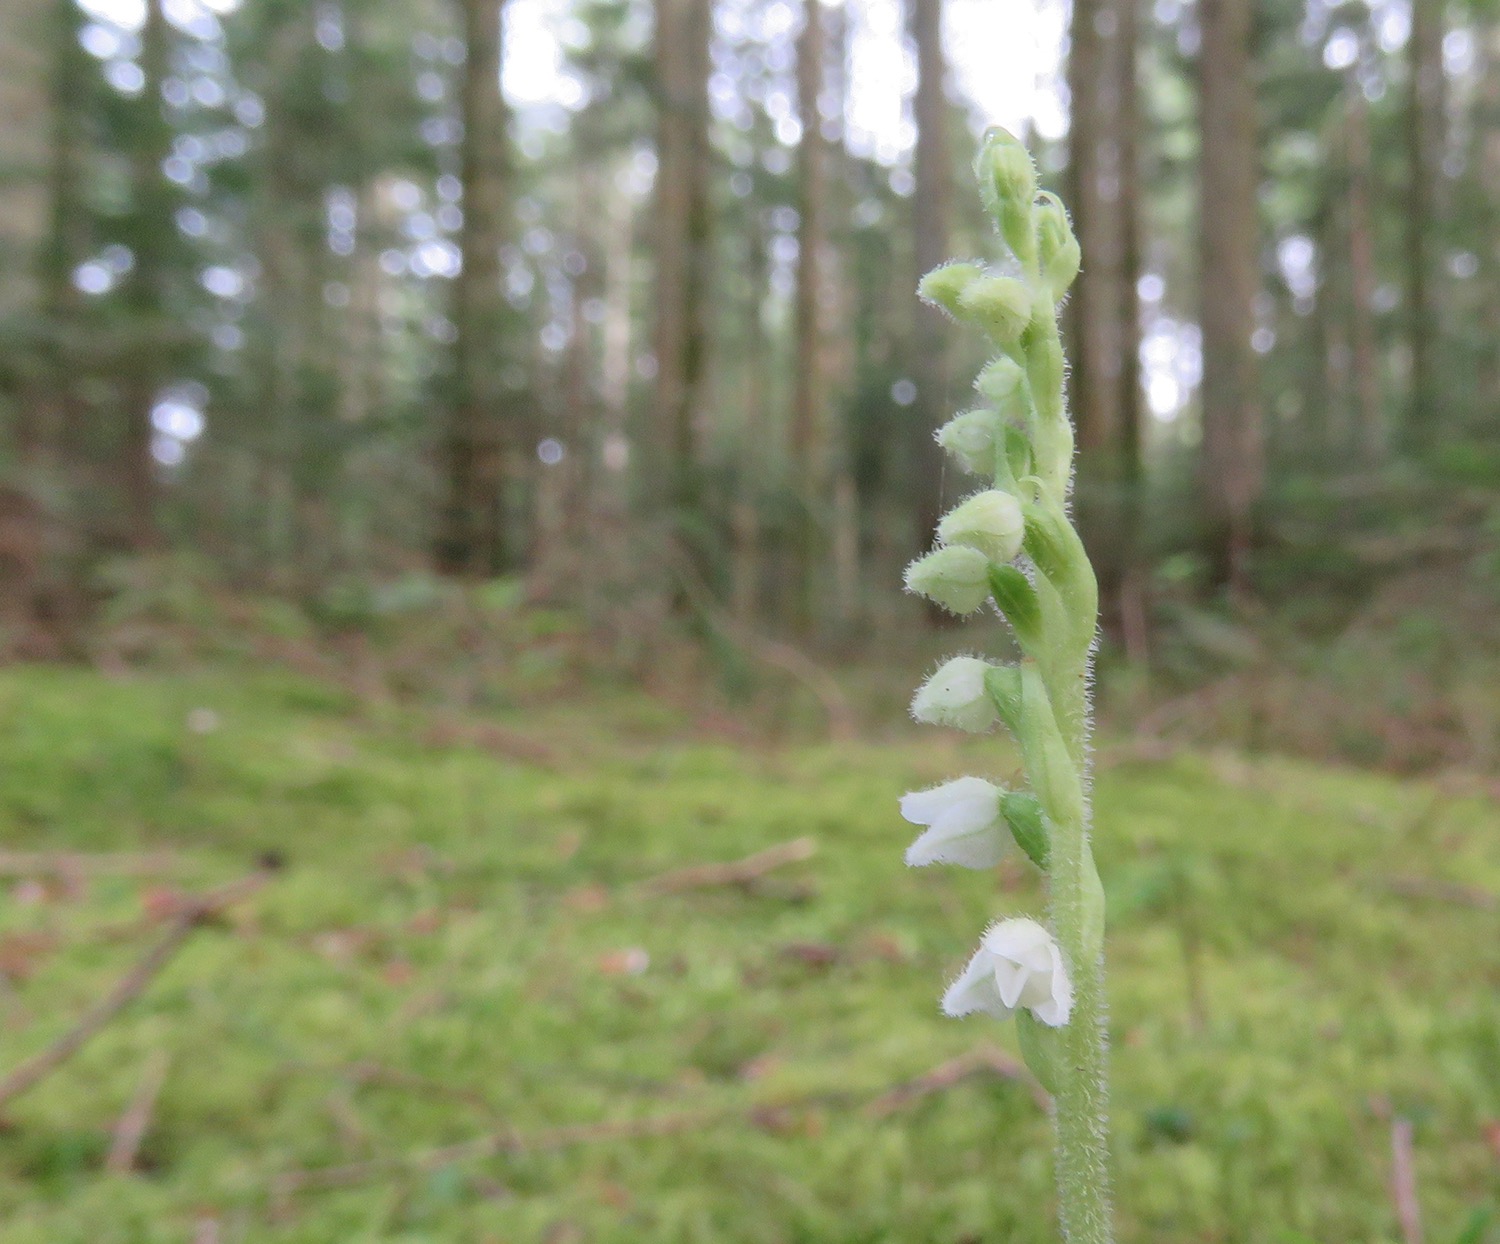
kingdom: Plantae
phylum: Tracheophyta
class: Liliopsida
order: Asparagales
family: Orchidaceae
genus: Goodyera
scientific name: Goodyera repens
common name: Knærod
